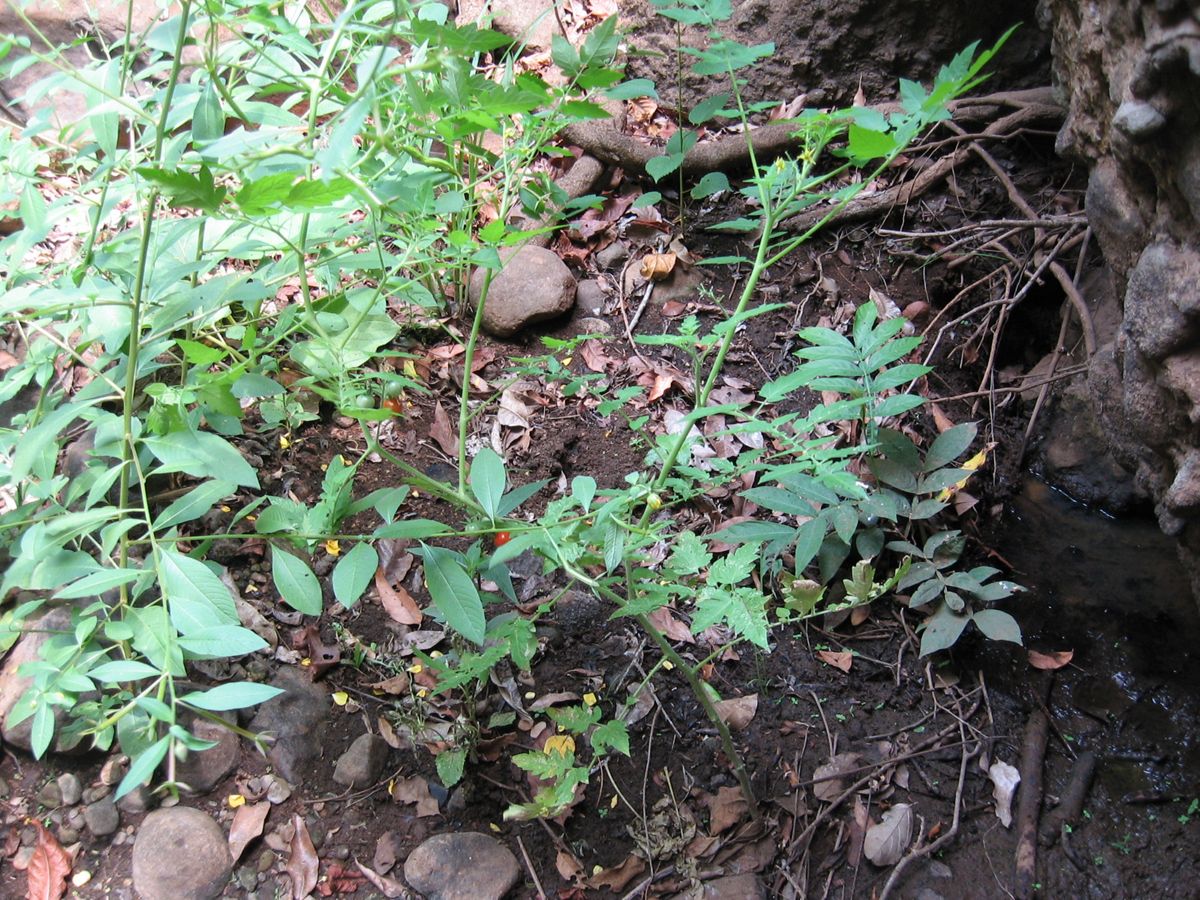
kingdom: Plantae
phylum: Tracheophyta
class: Magnoliopsida
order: Solanales
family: Solanaceae
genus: Solanum
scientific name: Solanum lycopersicum
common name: Garden tomato
